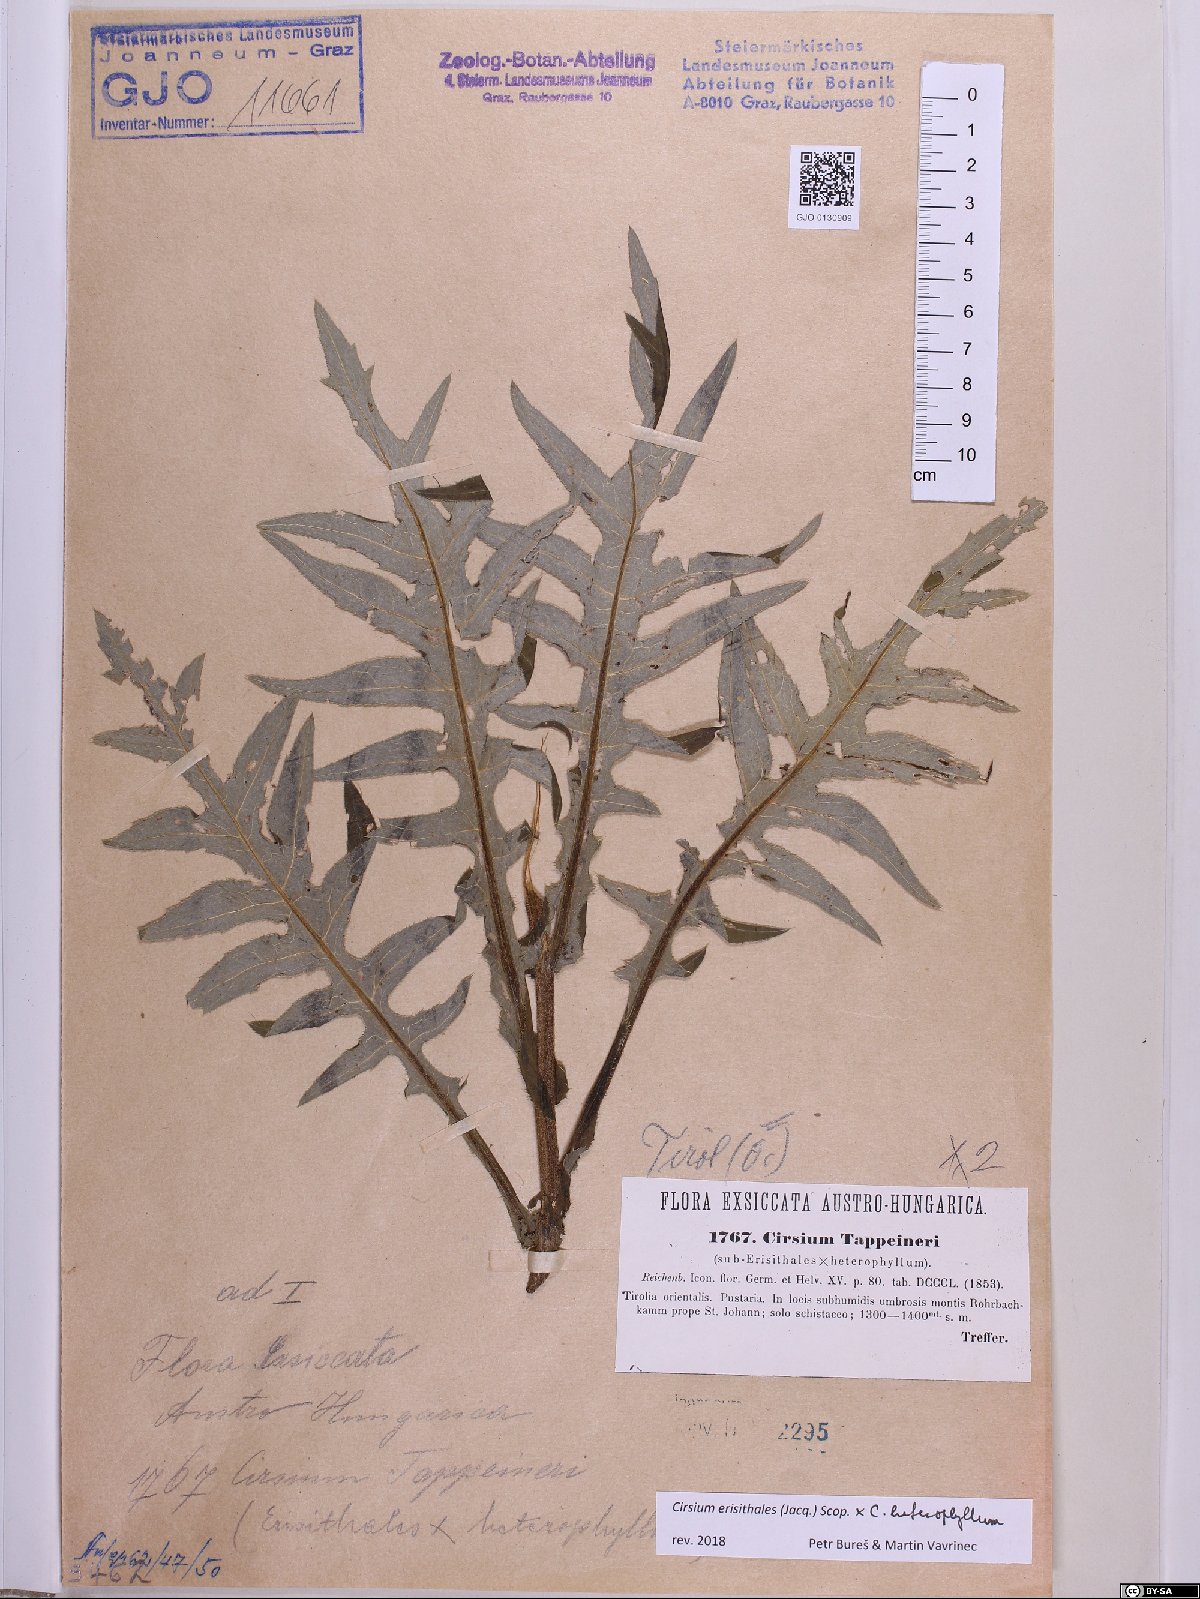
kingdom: Plantae
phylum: Tracheophyta
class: Magnoliopsida
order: Asterales
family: Asteraceae
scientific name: Asteraceae
